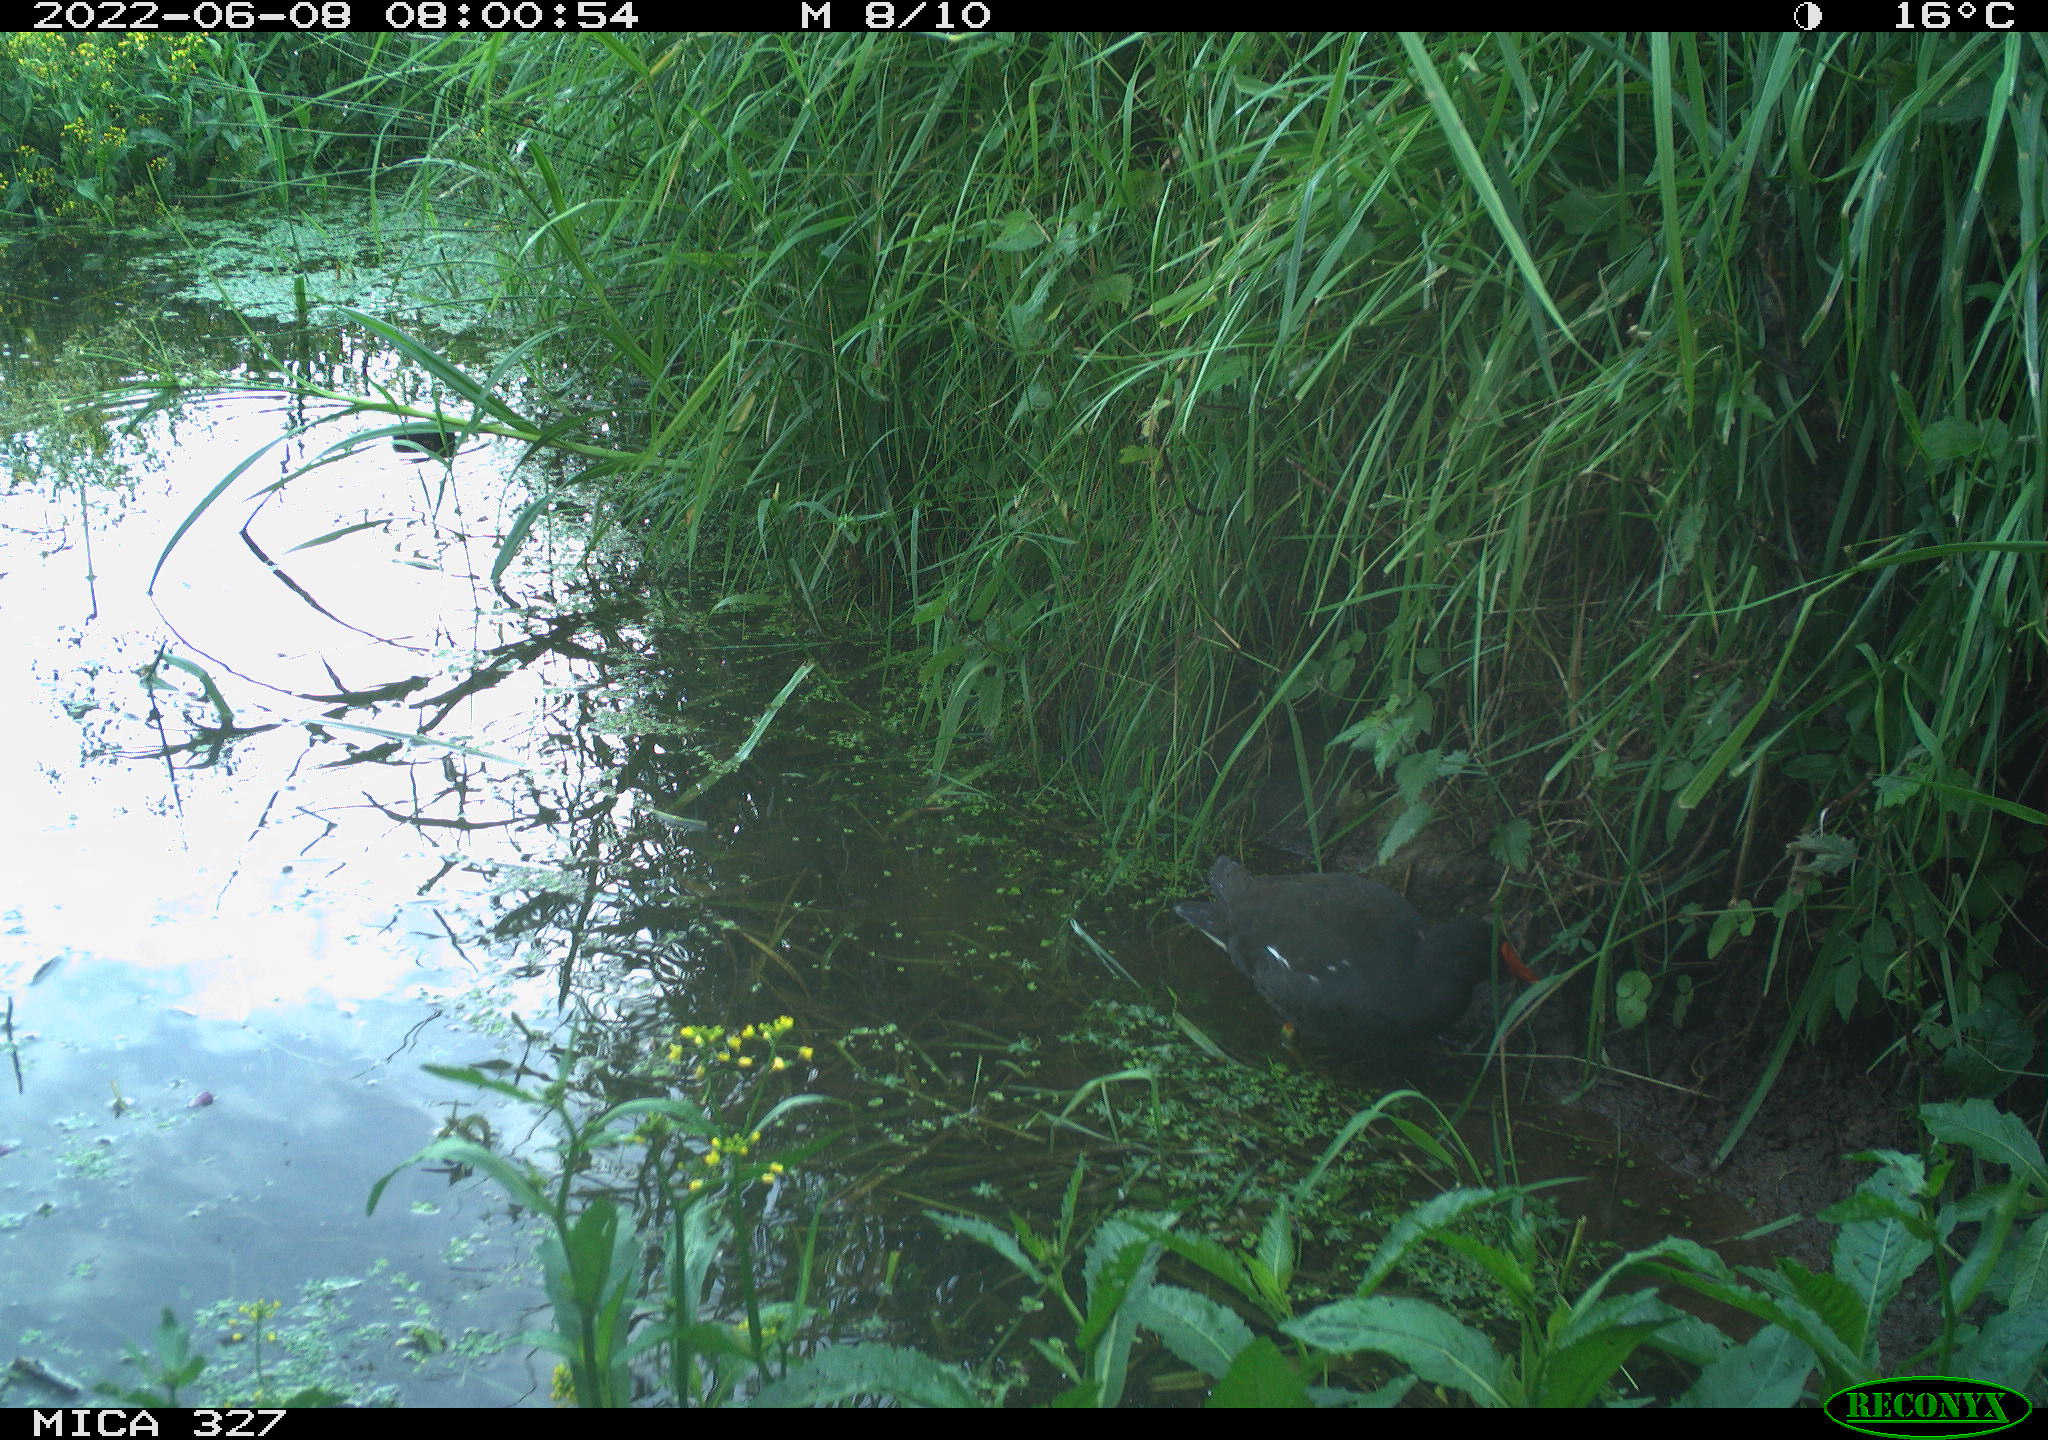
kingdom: Animalia
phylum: Chordata
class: Aves
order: Gruiformes
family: Rallidae
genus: Gallinula
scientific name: Gallinula chloropus
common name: Common moorhen
